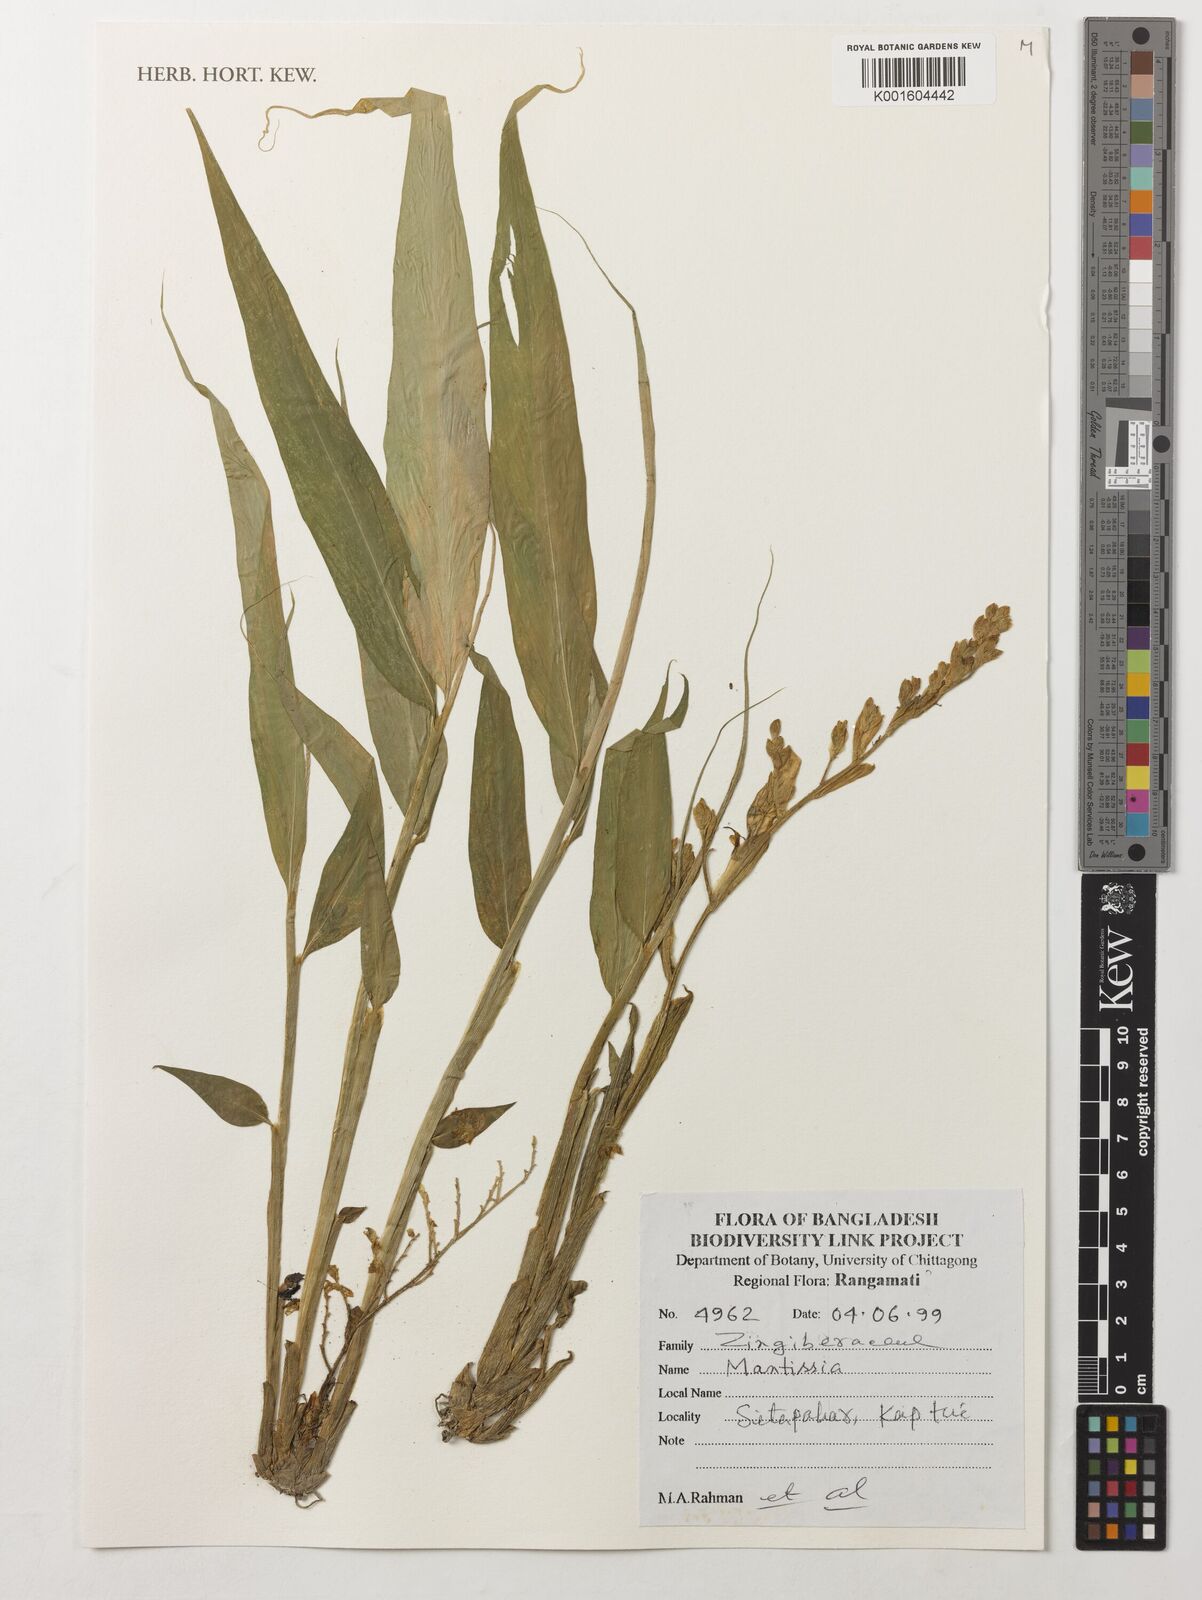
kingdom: Plantae
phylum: Tracheophyta
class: Liliopsida
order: Zingiberales
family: Zingiberaceae
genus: Globba
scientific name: Globba
